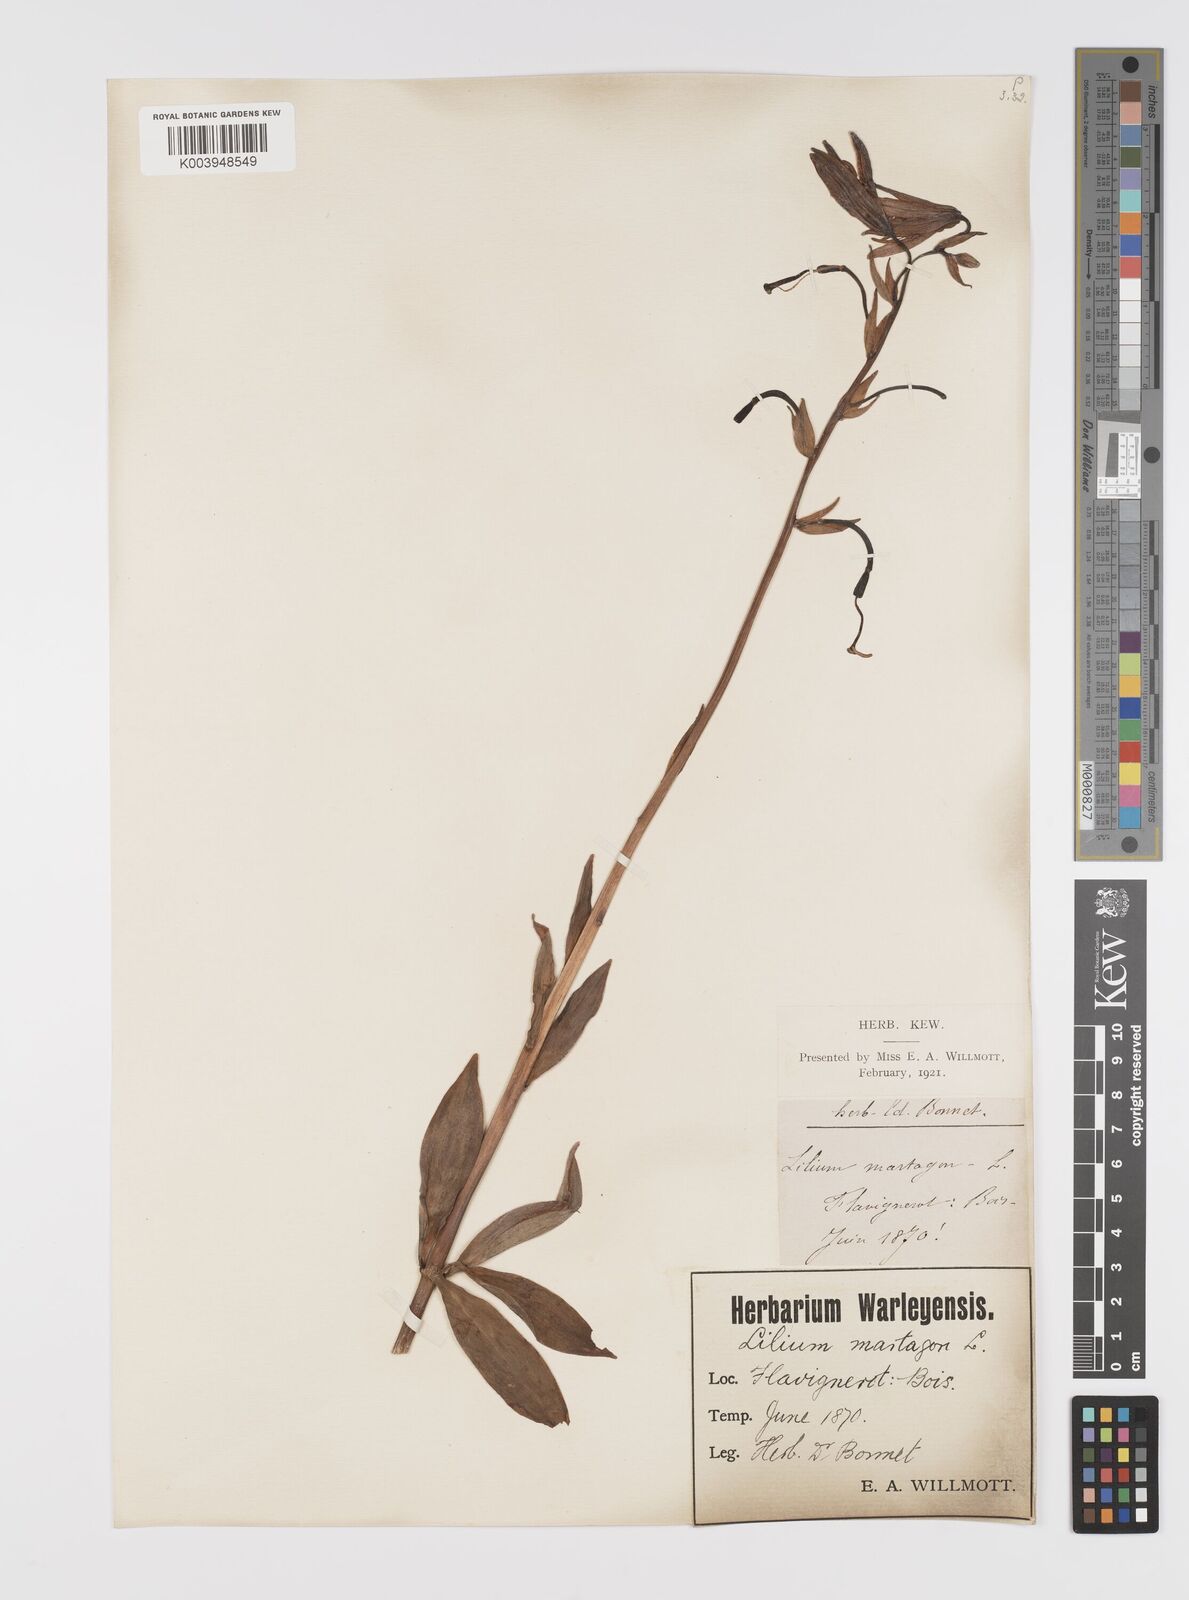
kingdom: Plantae
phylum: Tracheophyta
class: Liliopsida
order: Liliales
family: Liliaceae
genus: Lilium
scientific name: Lilium martagon
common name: Martagon lily
